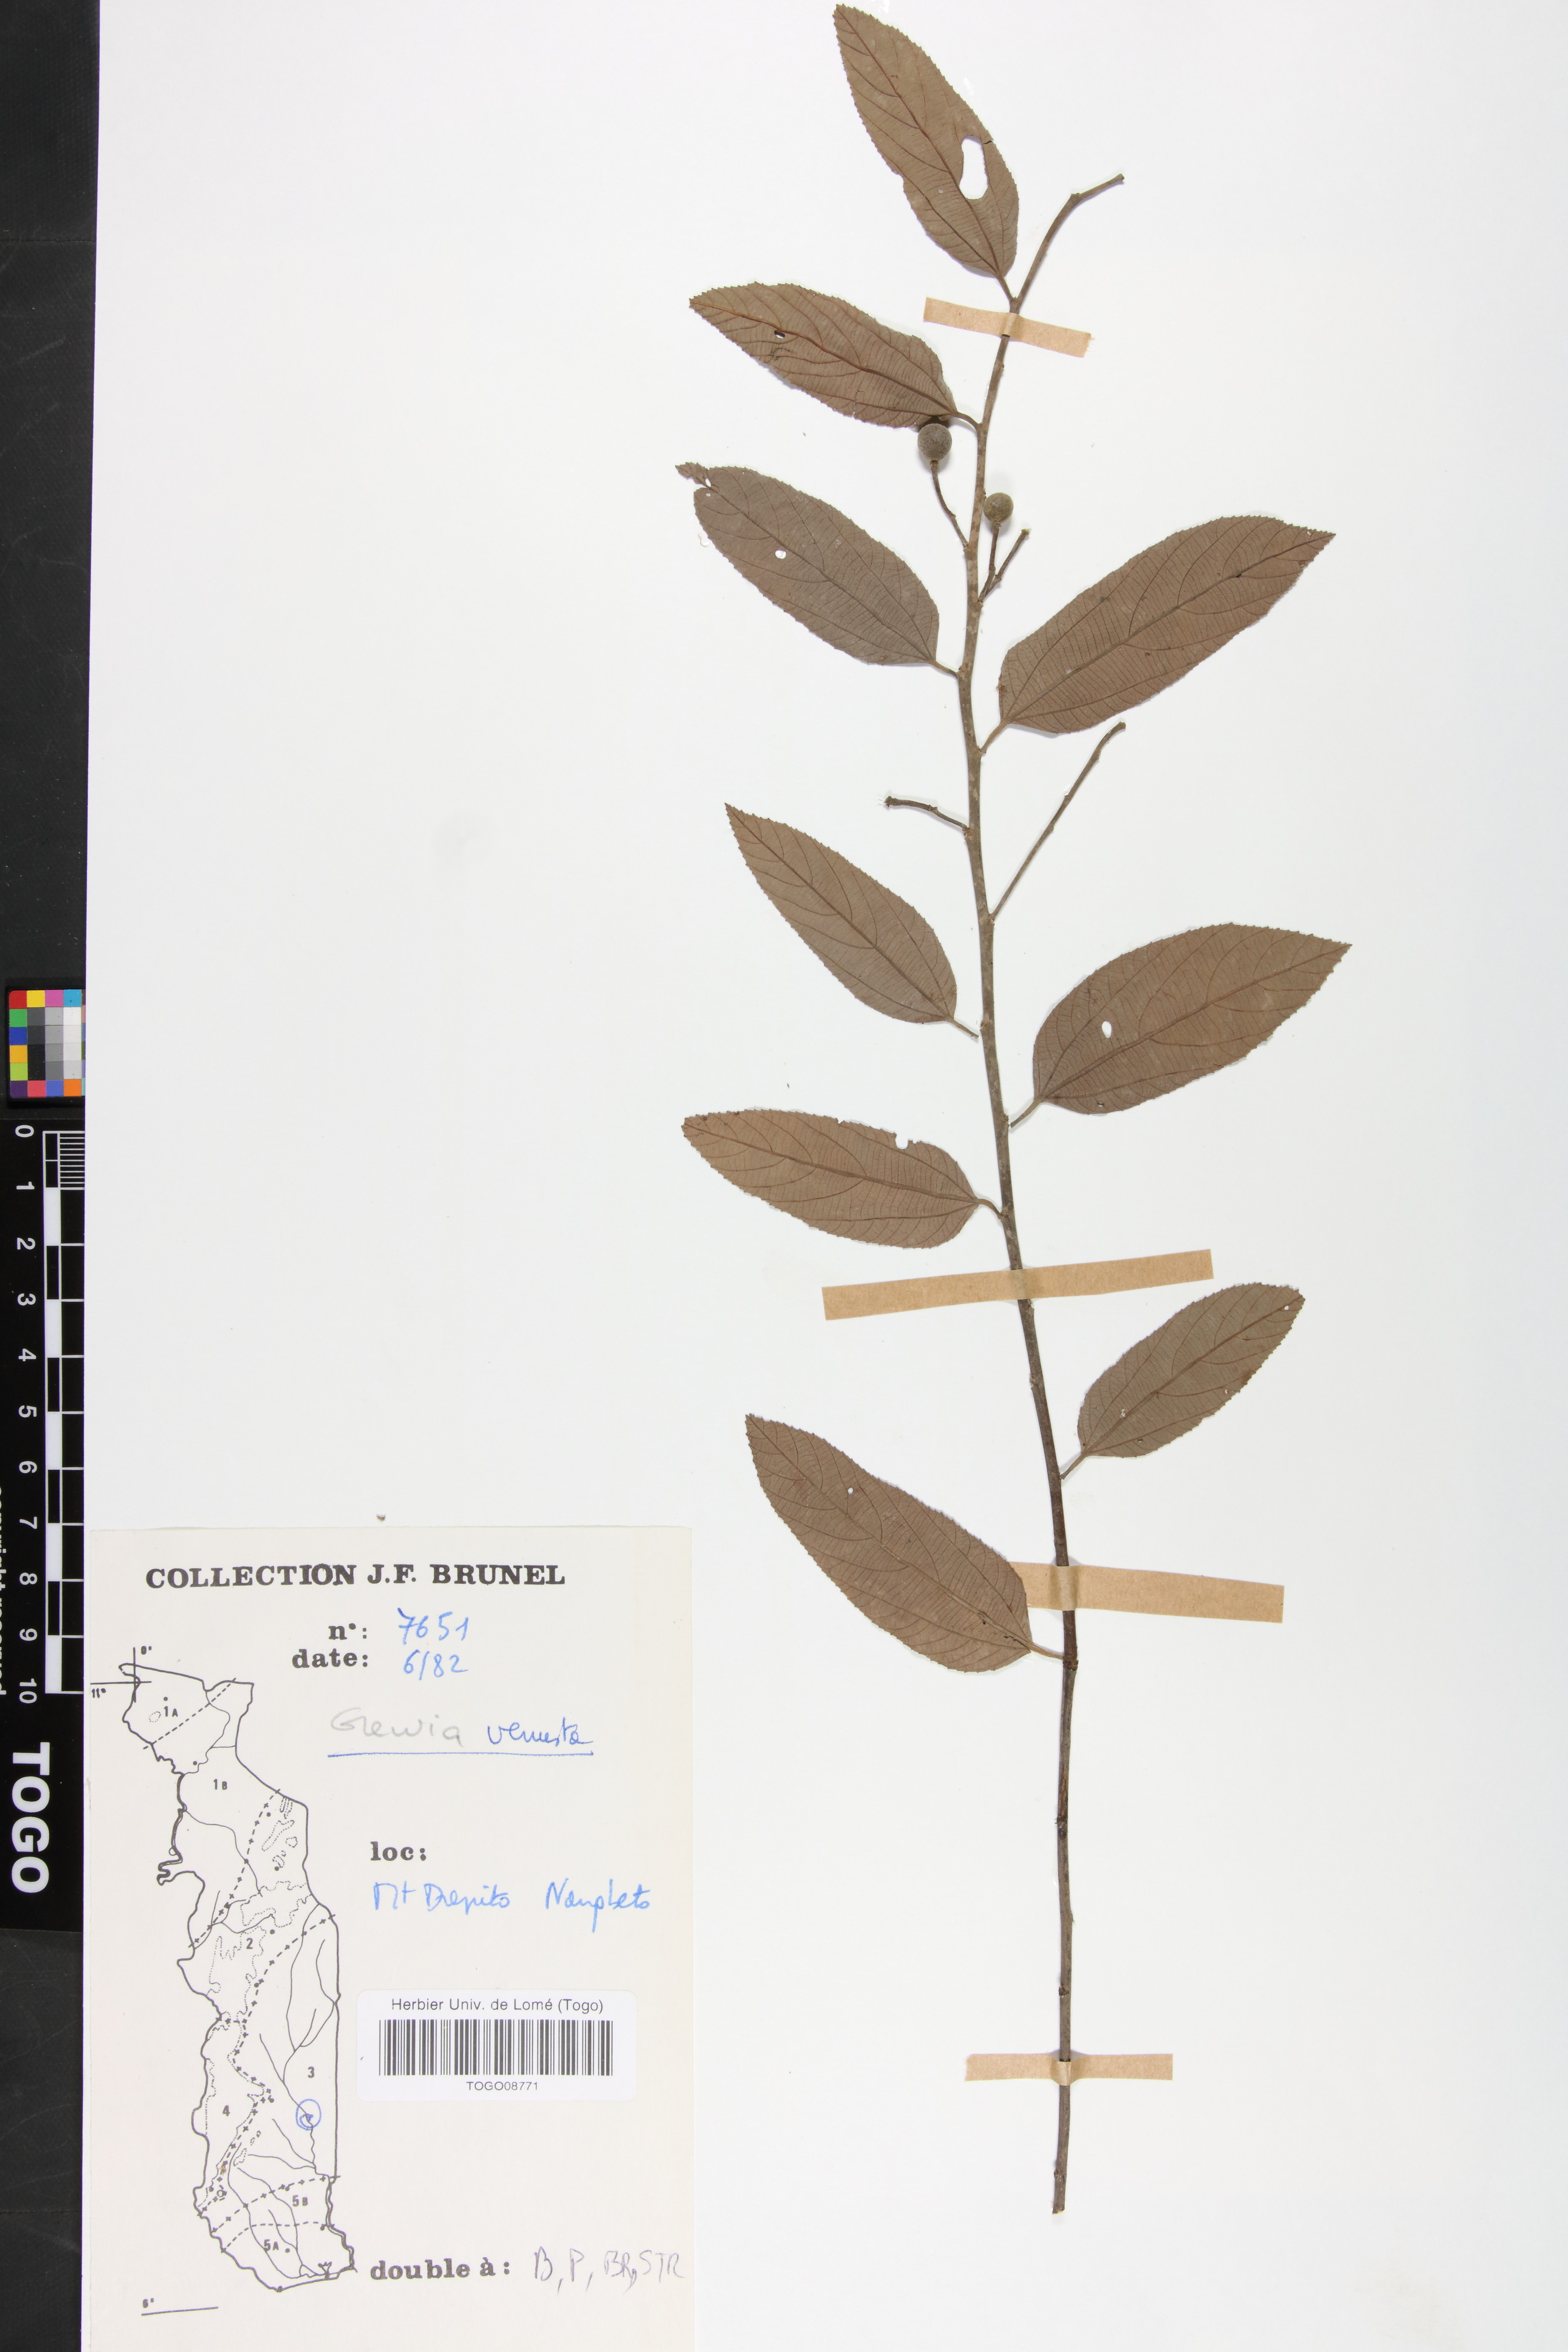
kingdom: Plantae
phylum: Tracheophyta
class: Magnoliopsida
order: Malvales
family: Malvaceae
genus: Grewia
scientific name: Grewia mollis
